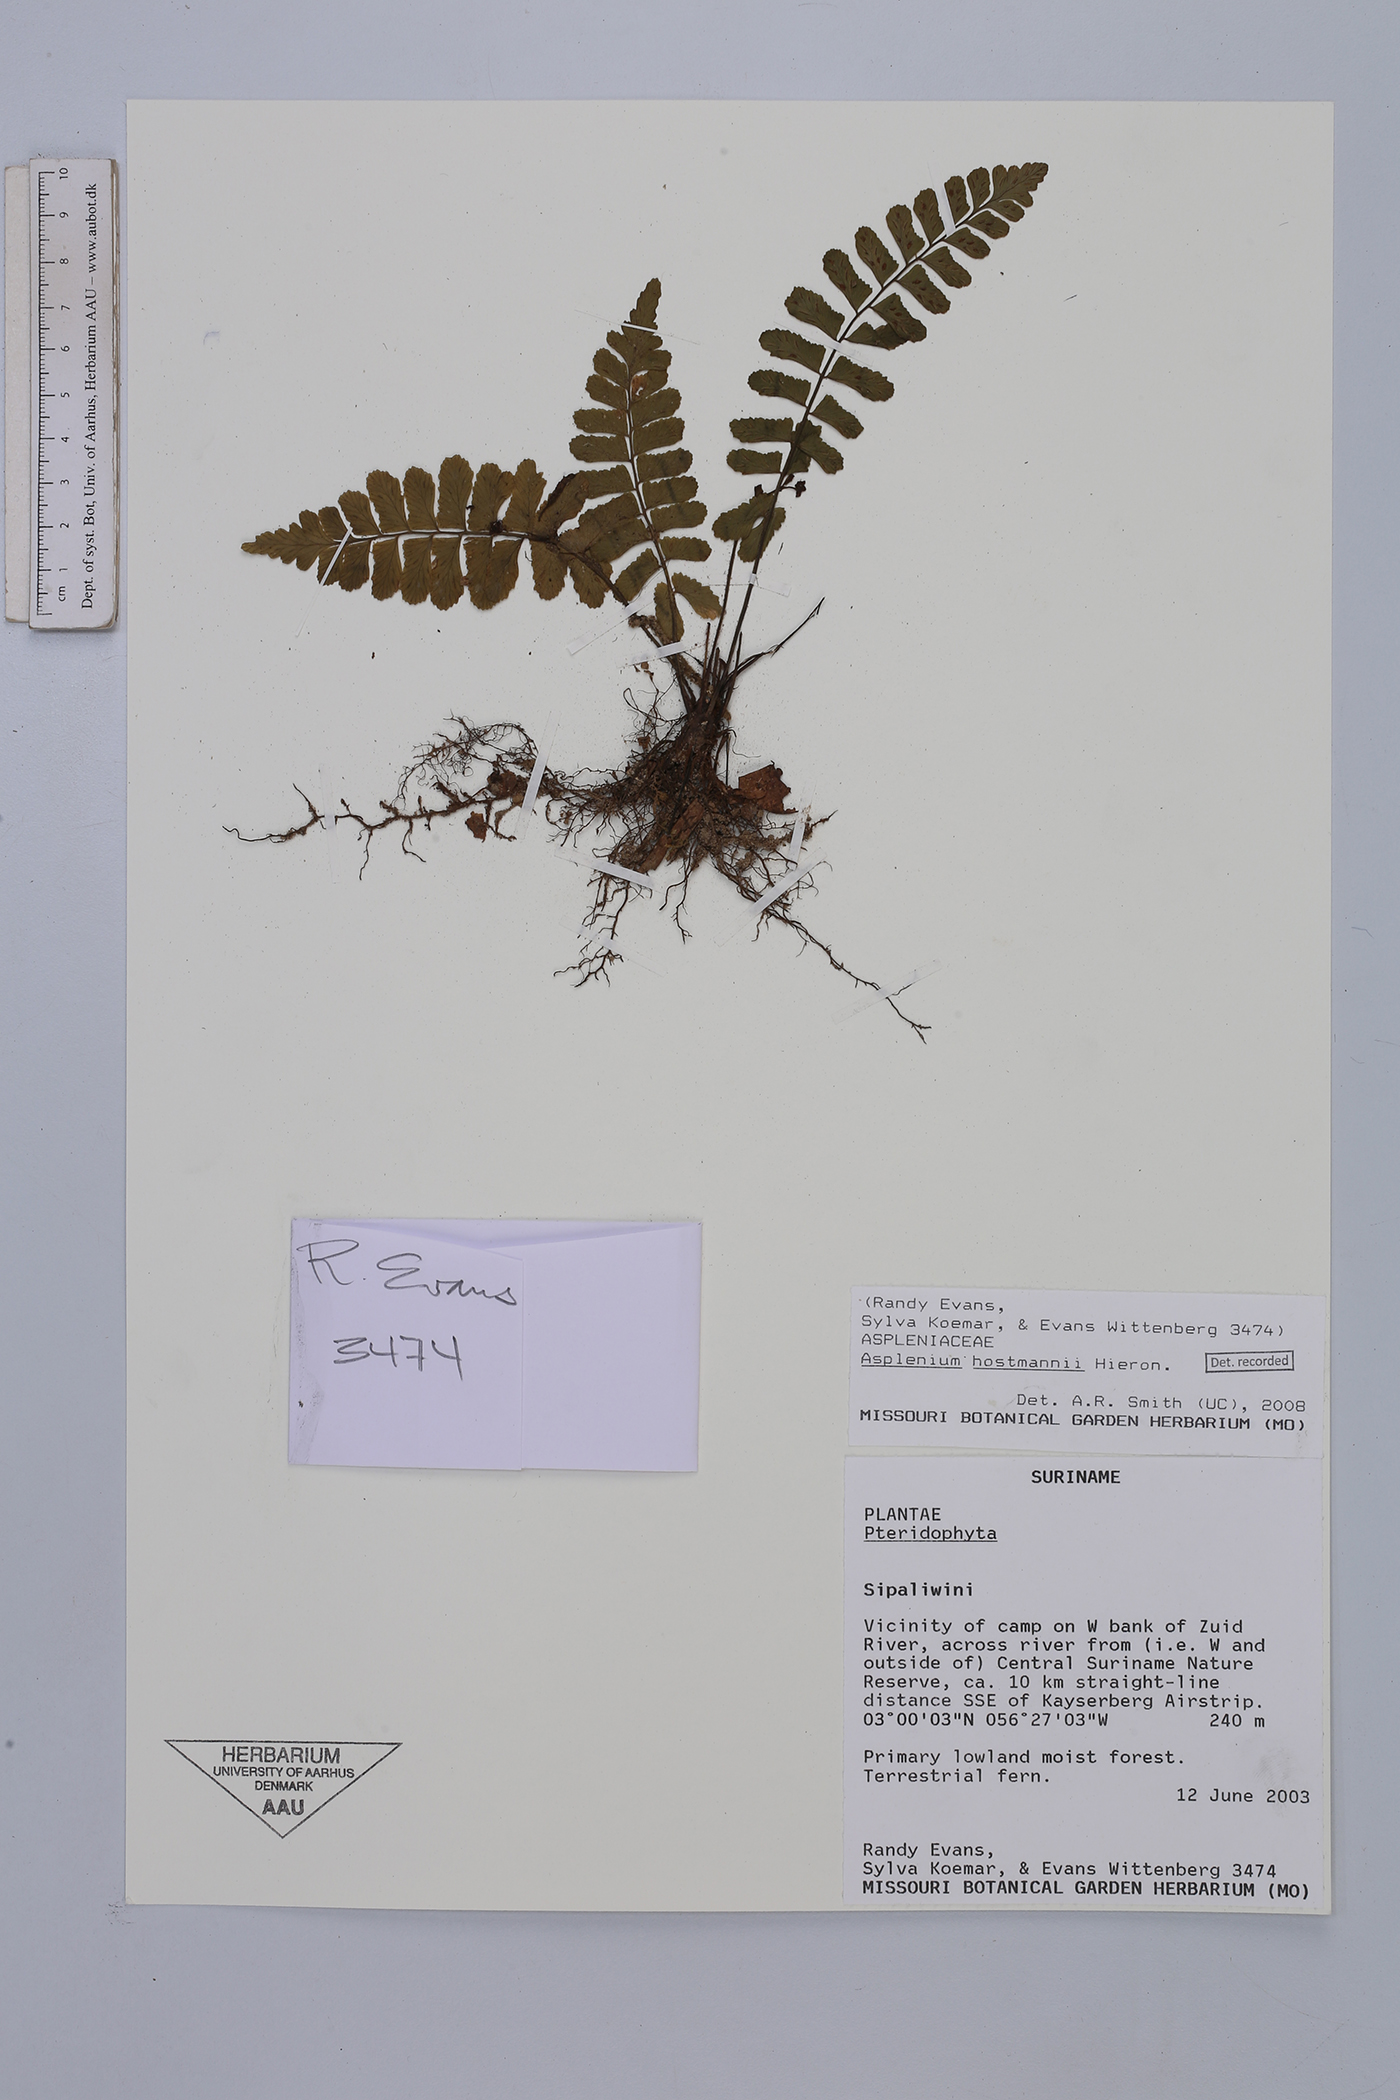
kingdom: Plantae
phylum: Tracheophyta
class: Polypodiopsida
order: Polypodiales
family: Aspleniaceae
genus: Asplenium
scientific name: Asplenium hostmannii
